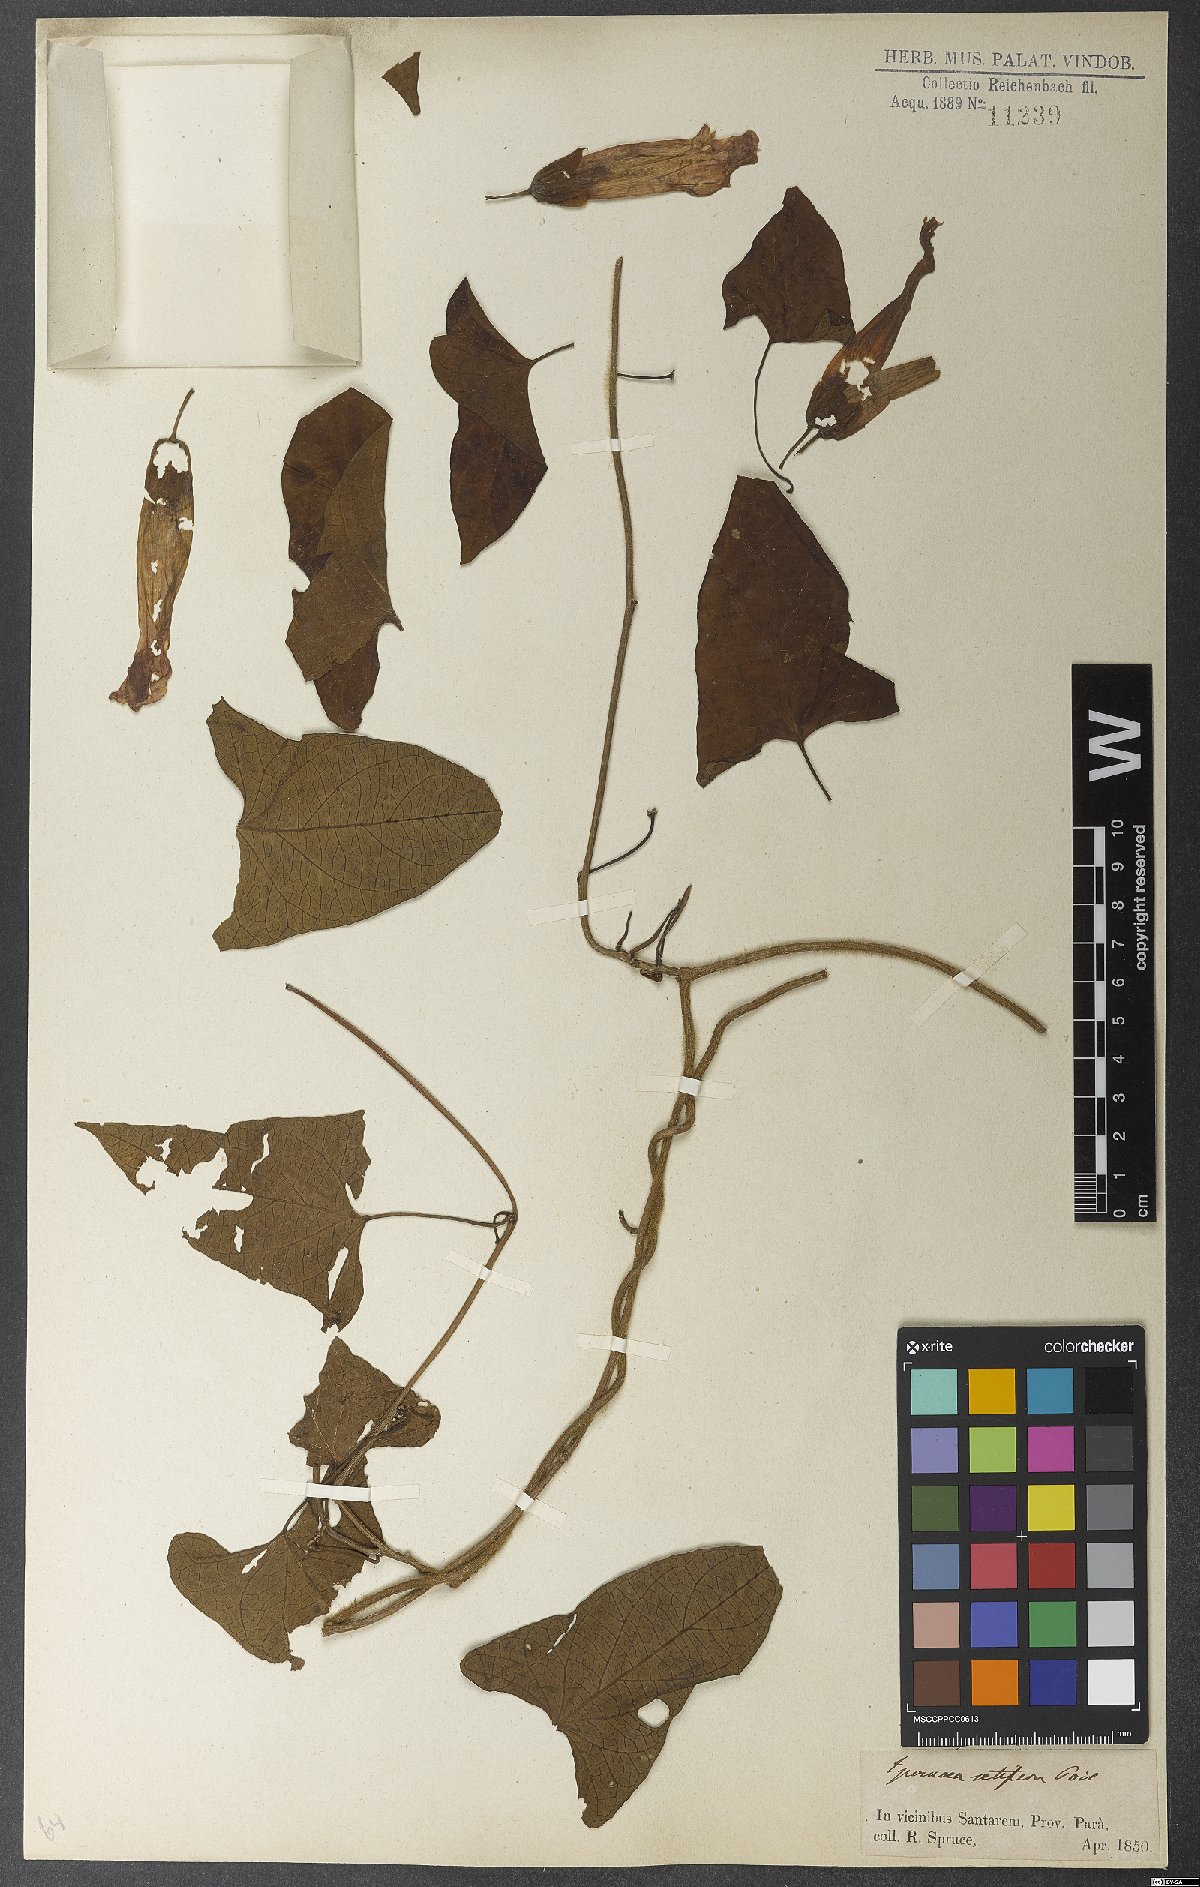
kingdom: Plantae
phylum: Tracheophyta
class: Magnoliopsida
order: Solanales
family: Convolvulaceae
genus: Ipomoea
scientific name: Ipomoea setifera
